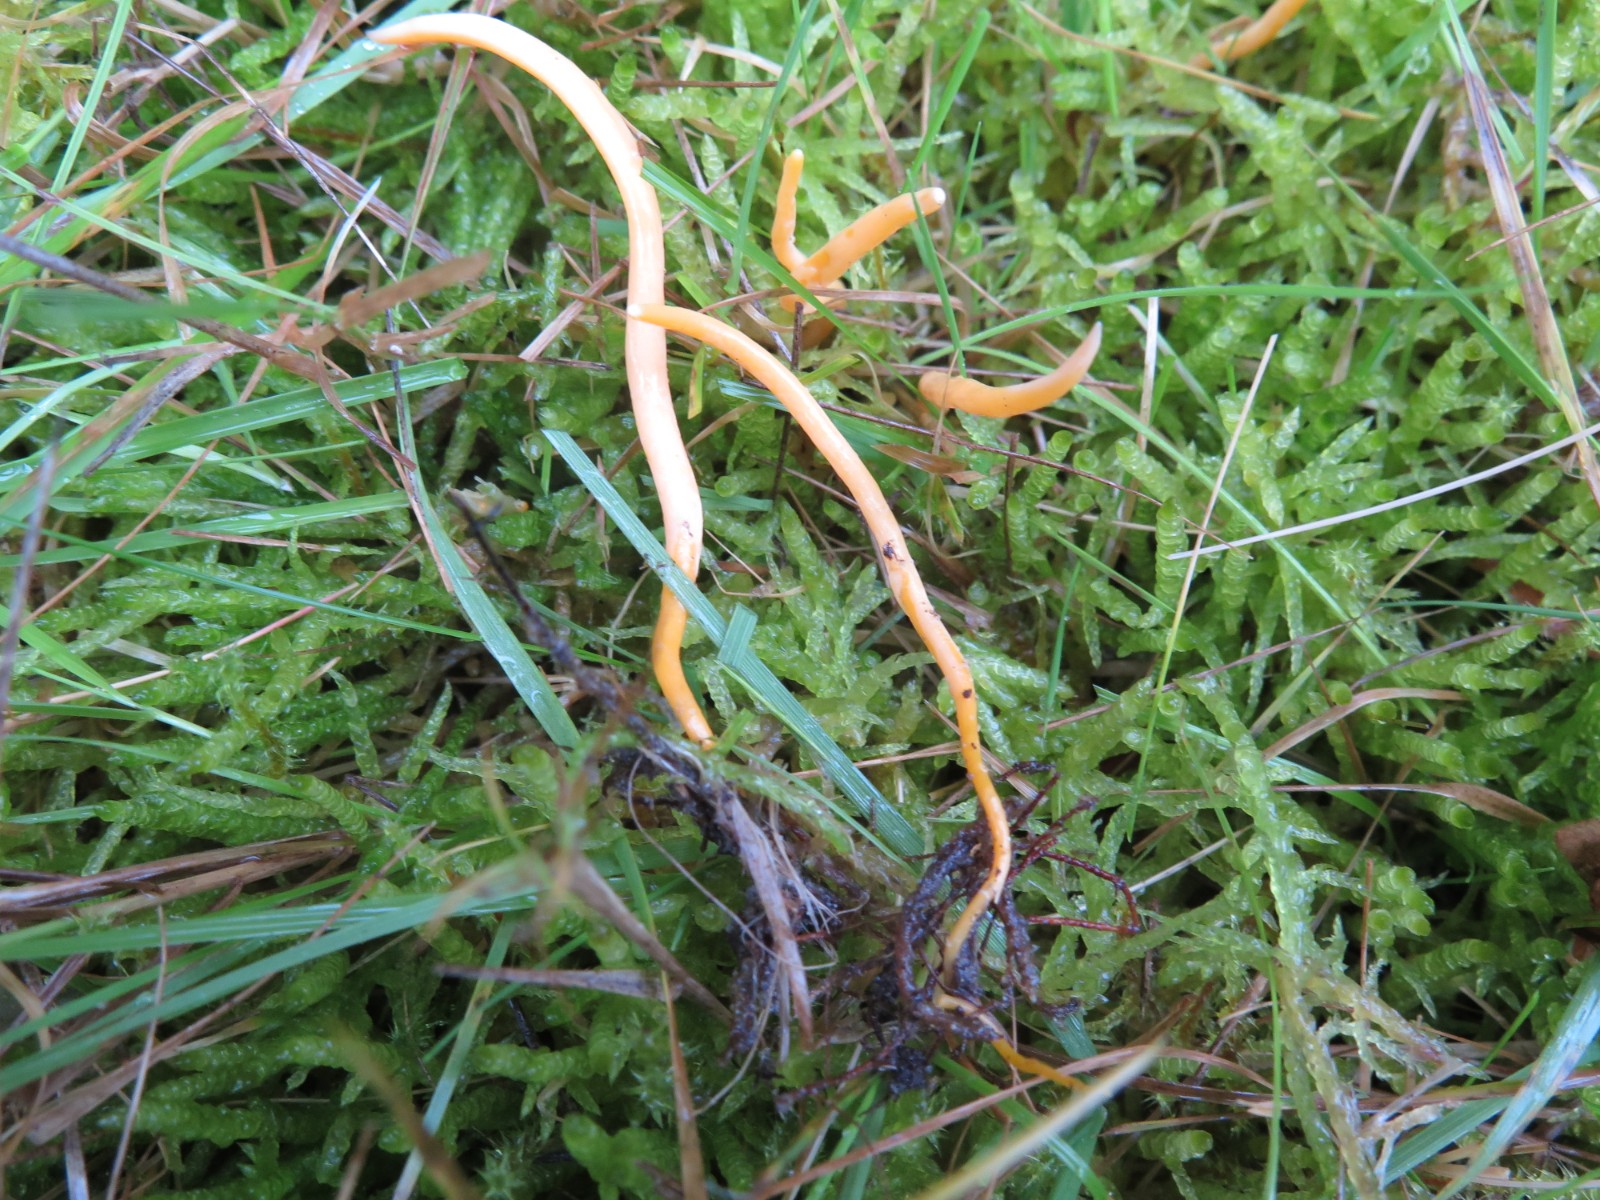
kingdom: Fungi
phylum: Basidiomycota
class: Agaricomycetes
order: Agaricales
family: Clavariaceae
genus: Clavulinopsis
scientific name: Clavulinopsis luteoalba
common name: abrikos-køllesvamp
